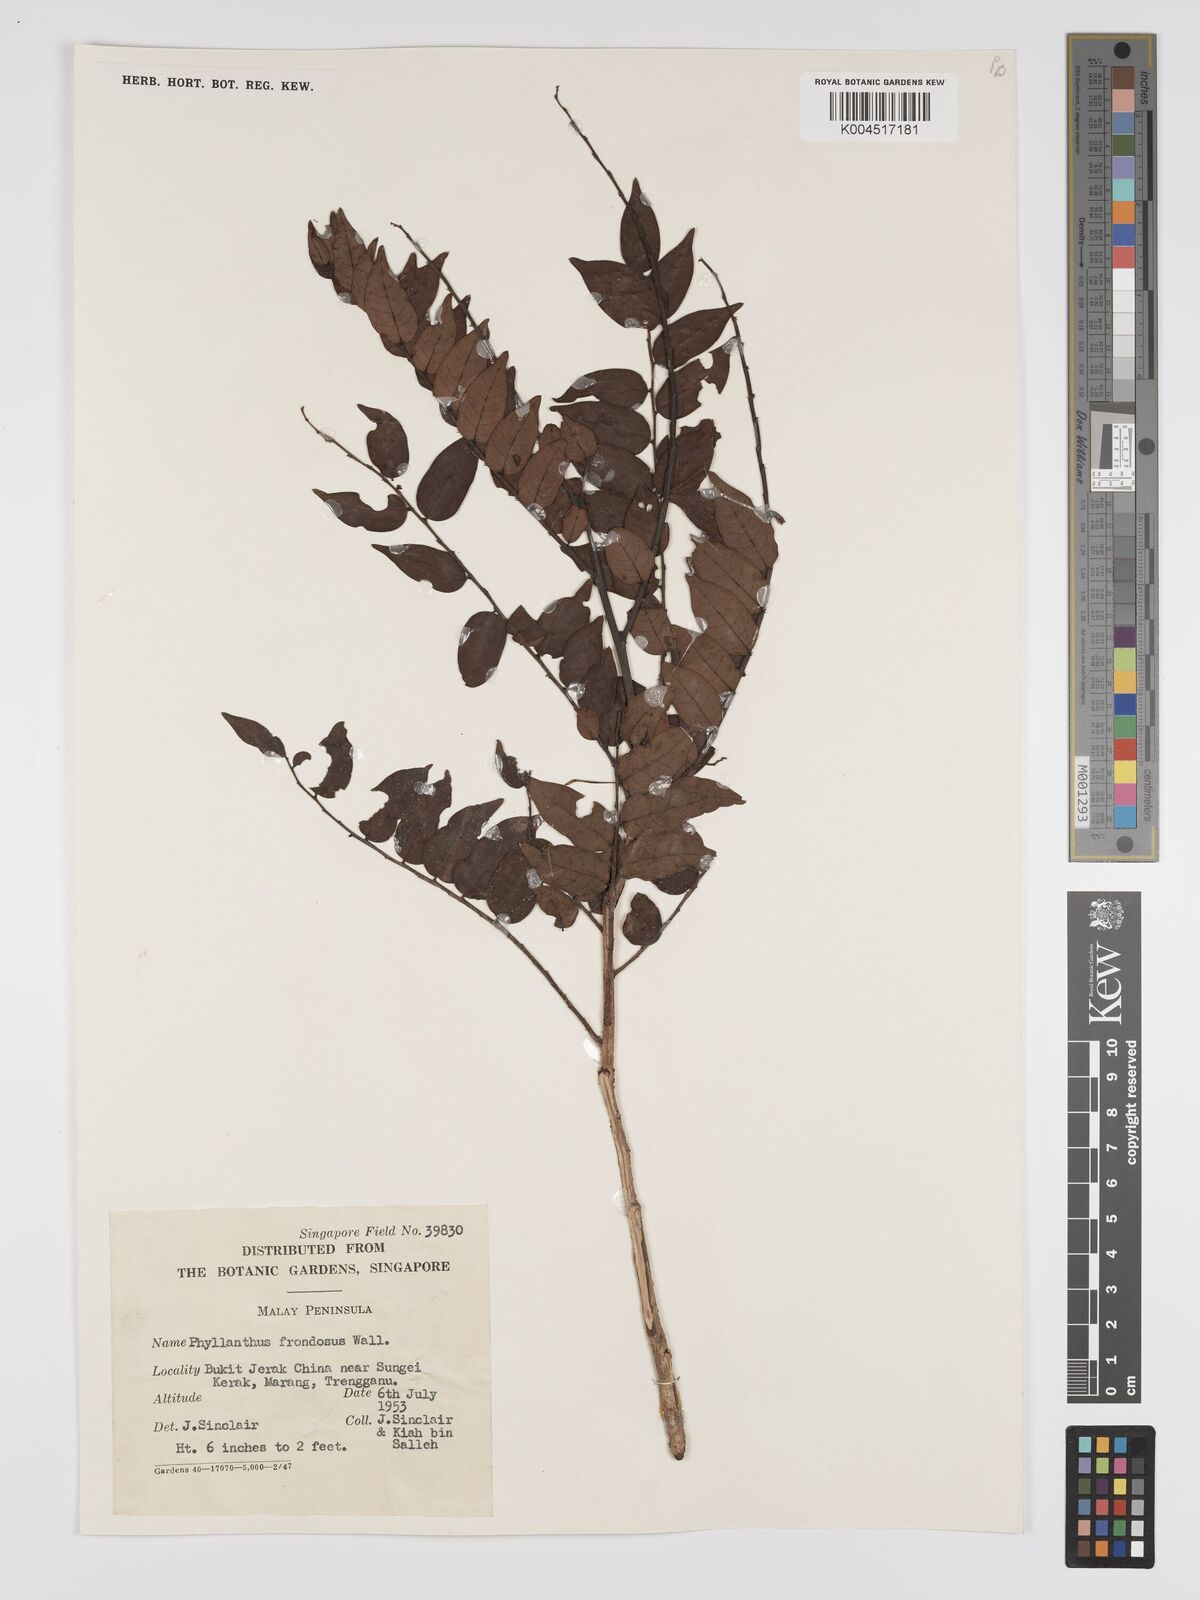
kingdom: Plantae
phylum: Tracheophyta
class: Magnoliopsida
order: Malpighiales
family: Phyllanthaceae
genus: Phyllanthus
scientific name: Phyllanthus
